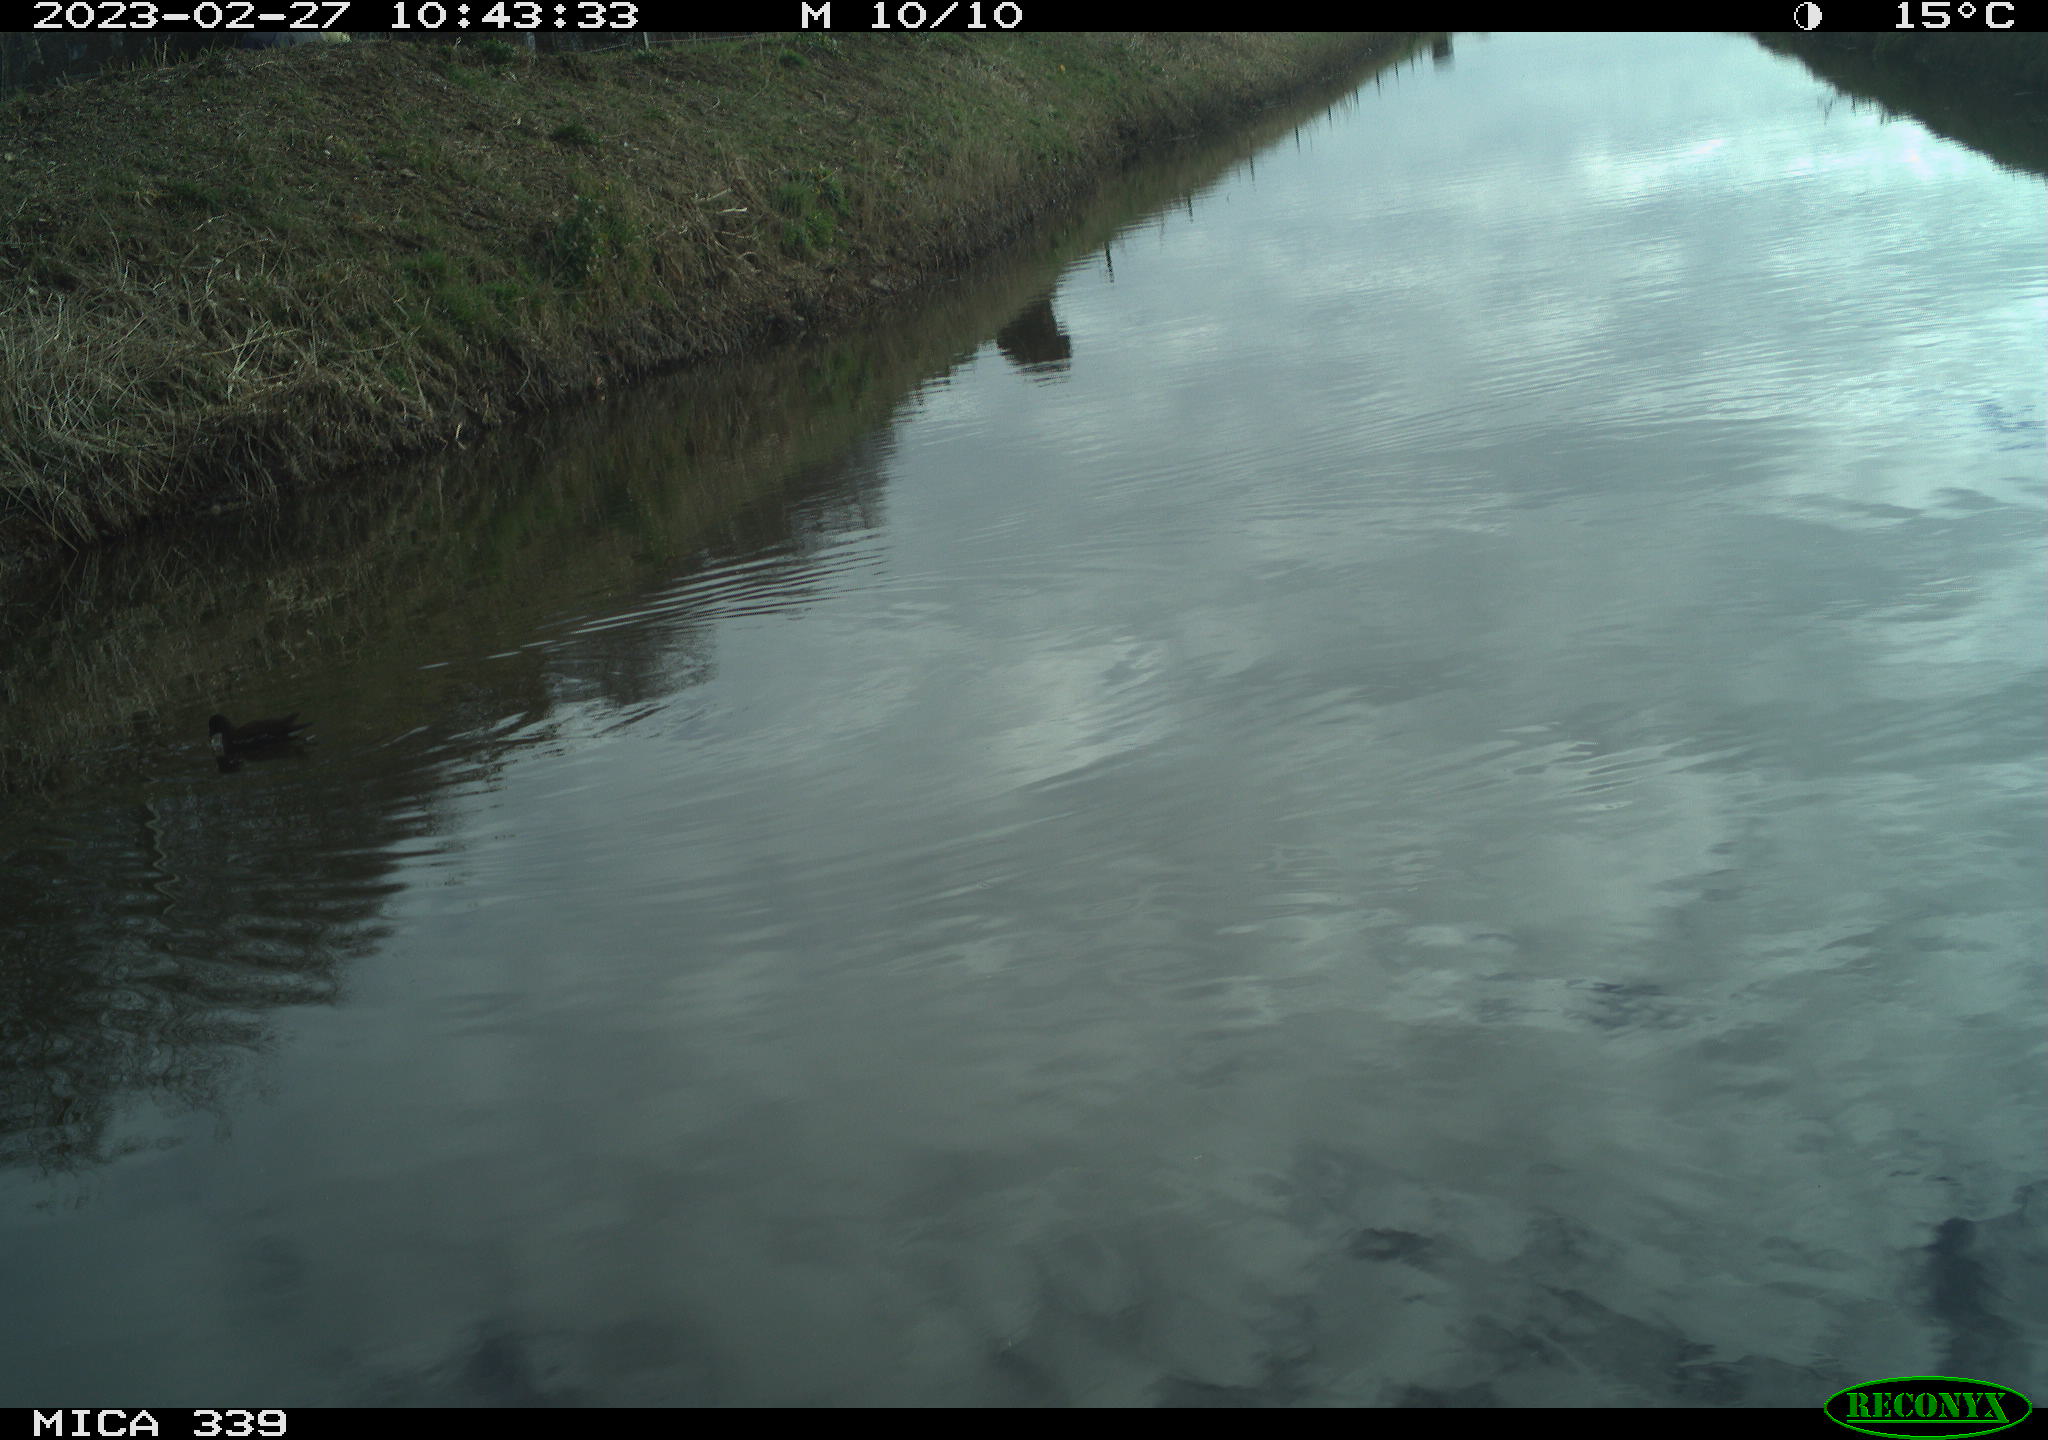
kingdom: Animalia
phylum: Chordata
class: Aves
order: Gruiformes
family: Rallidae
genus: Gallinula
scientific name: Gallinula chloropus
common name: Common moorhen
